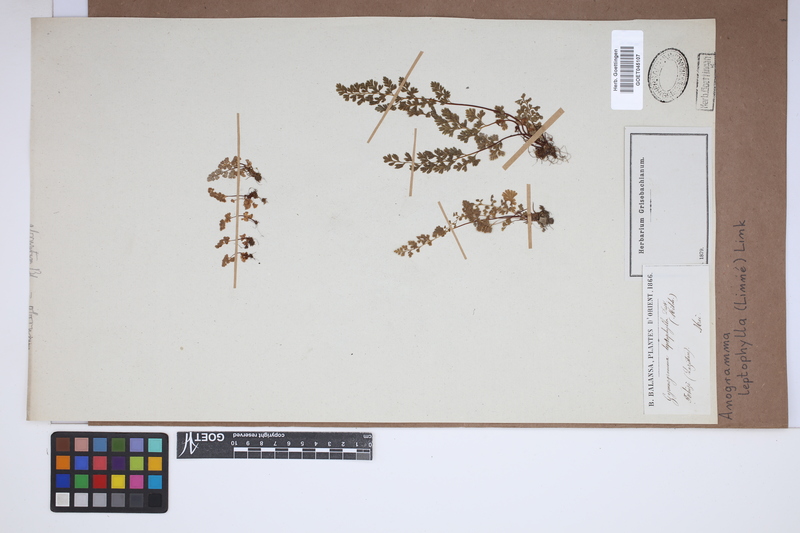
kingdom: Plantae
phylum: Tracheophyta
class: Polypodiopsida
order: Polypodiales
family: Pteridaceae
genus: Anogramma
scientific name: Anogramma leptophylla
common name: Jersey fern
